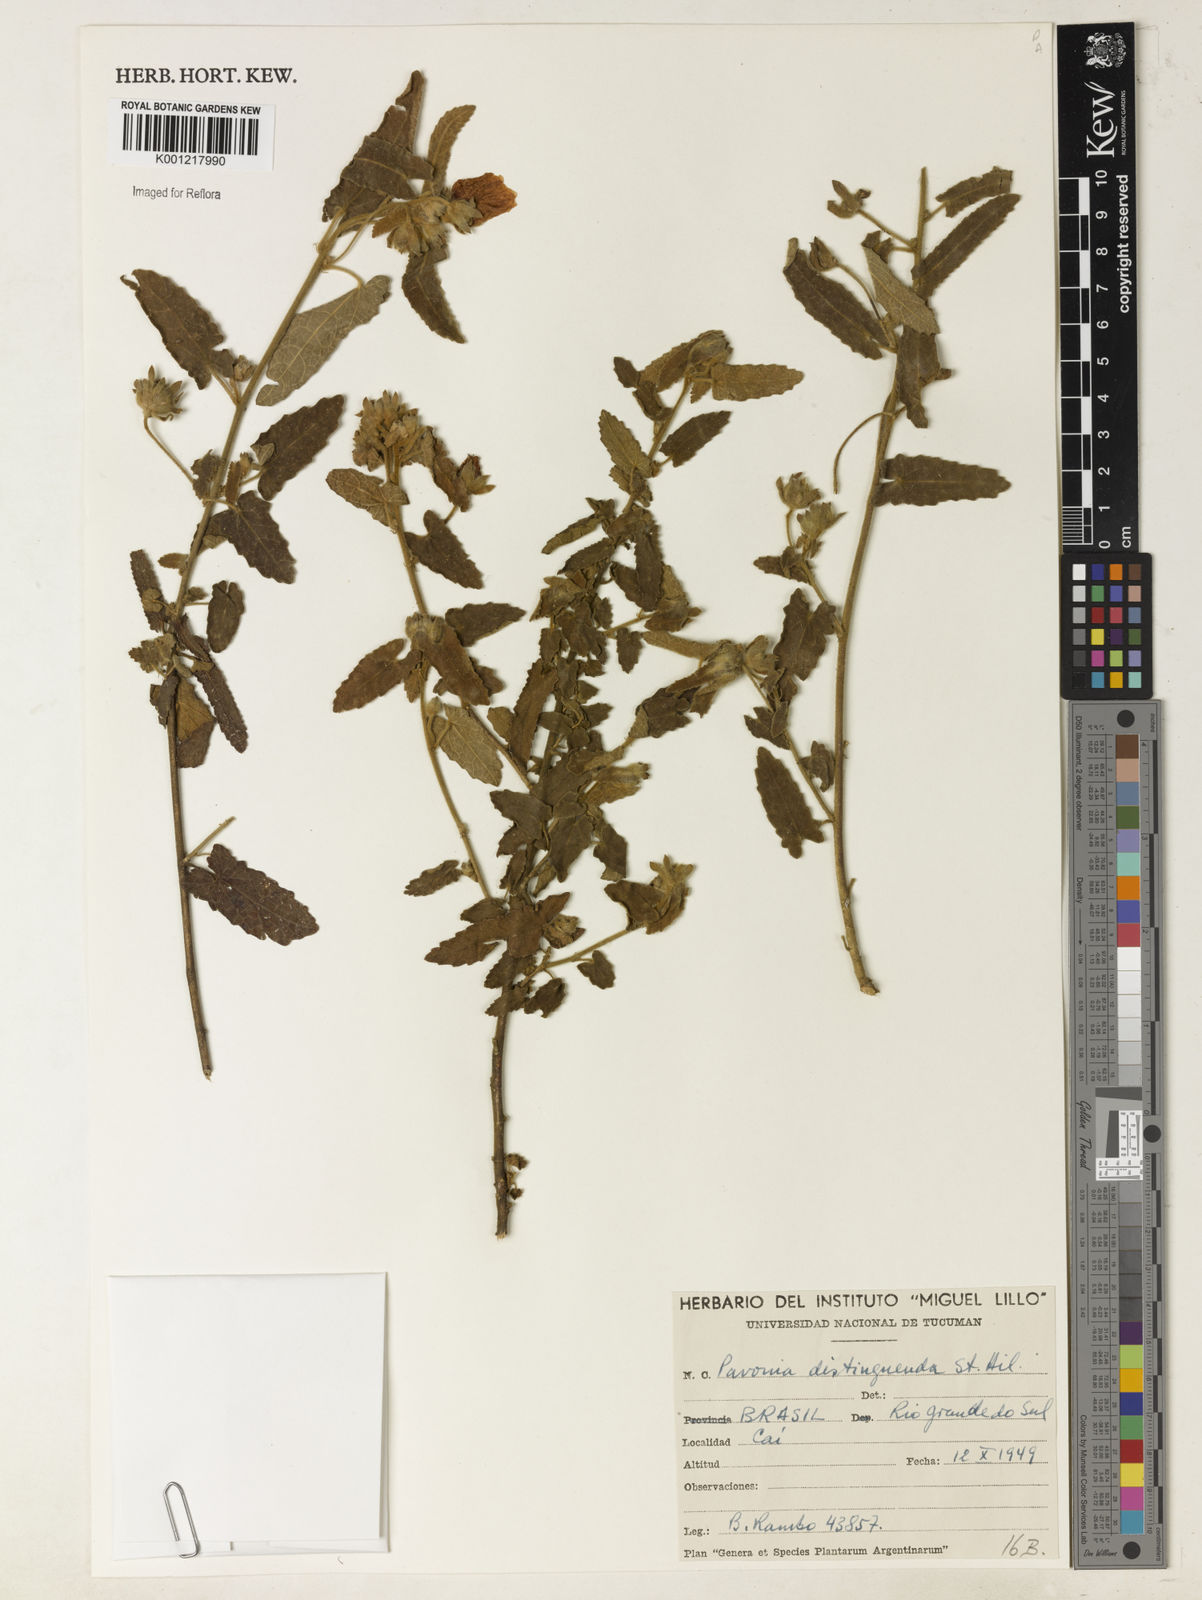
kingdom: Plantae
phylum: Tracheophyta
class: Magnoliopsida
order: Malvales
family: Malvaceae
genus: Pavonia
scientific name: Pavonia distinguenda
